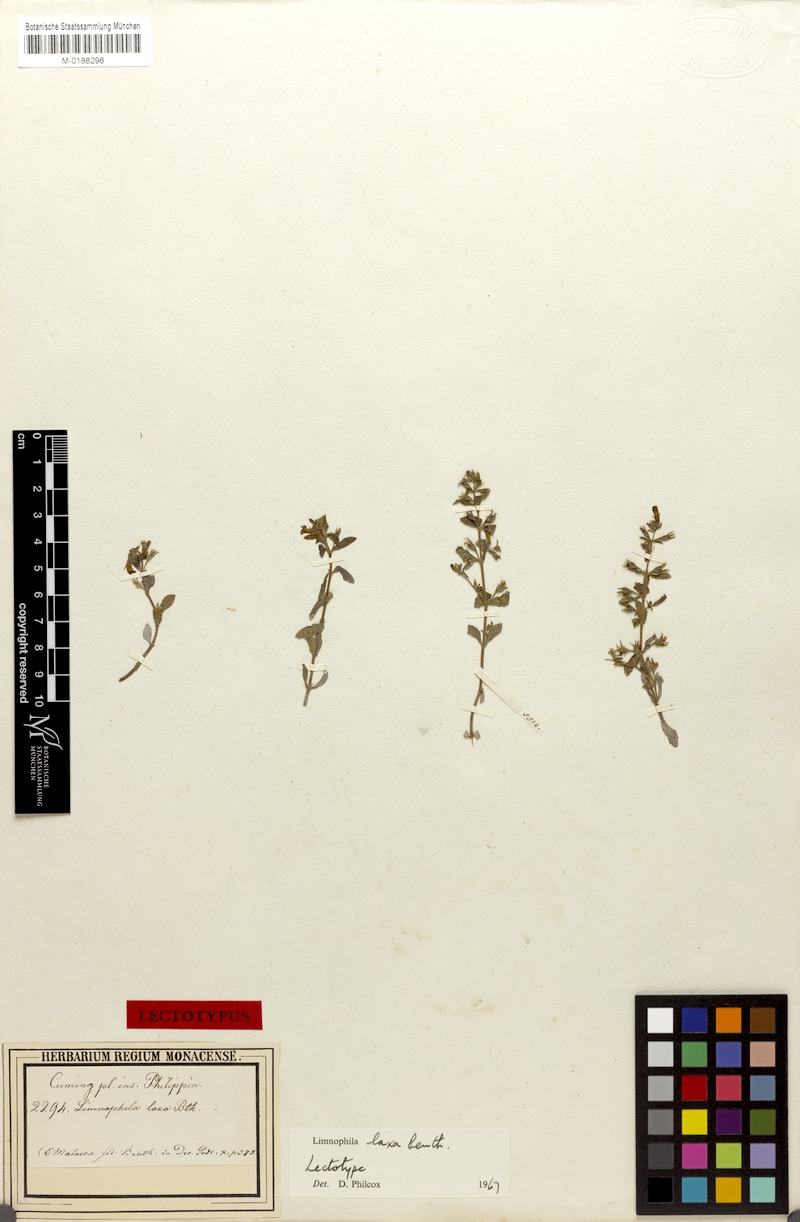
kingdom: Plantae
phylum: Tracheophyta
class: Magnoliopsida
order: Lamiales
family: Plantaginaceae
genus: Limnophila
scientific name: Limnophila laxa
